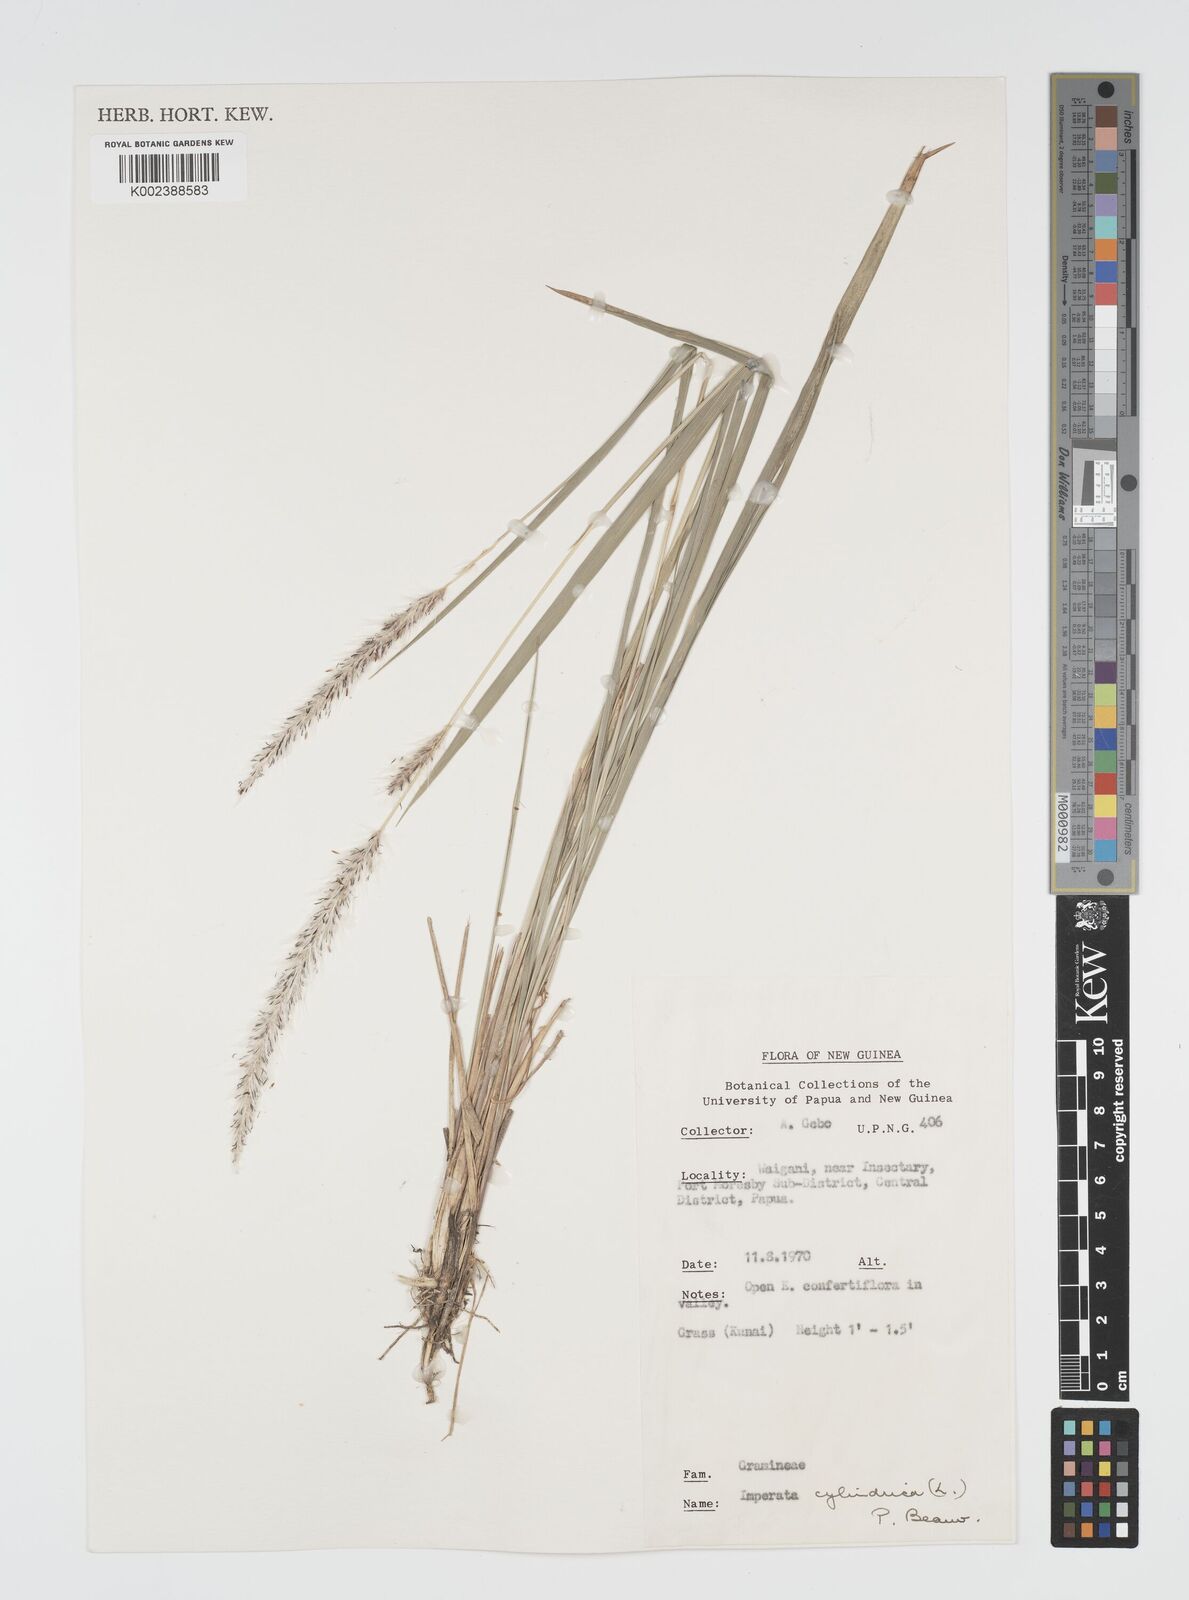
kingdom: Plantae
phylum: Tracheophyta
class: Liliopsida
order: Poales
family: Poaceae
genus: Imperata
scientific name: Imperata cylindrica
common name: Cogongrass
